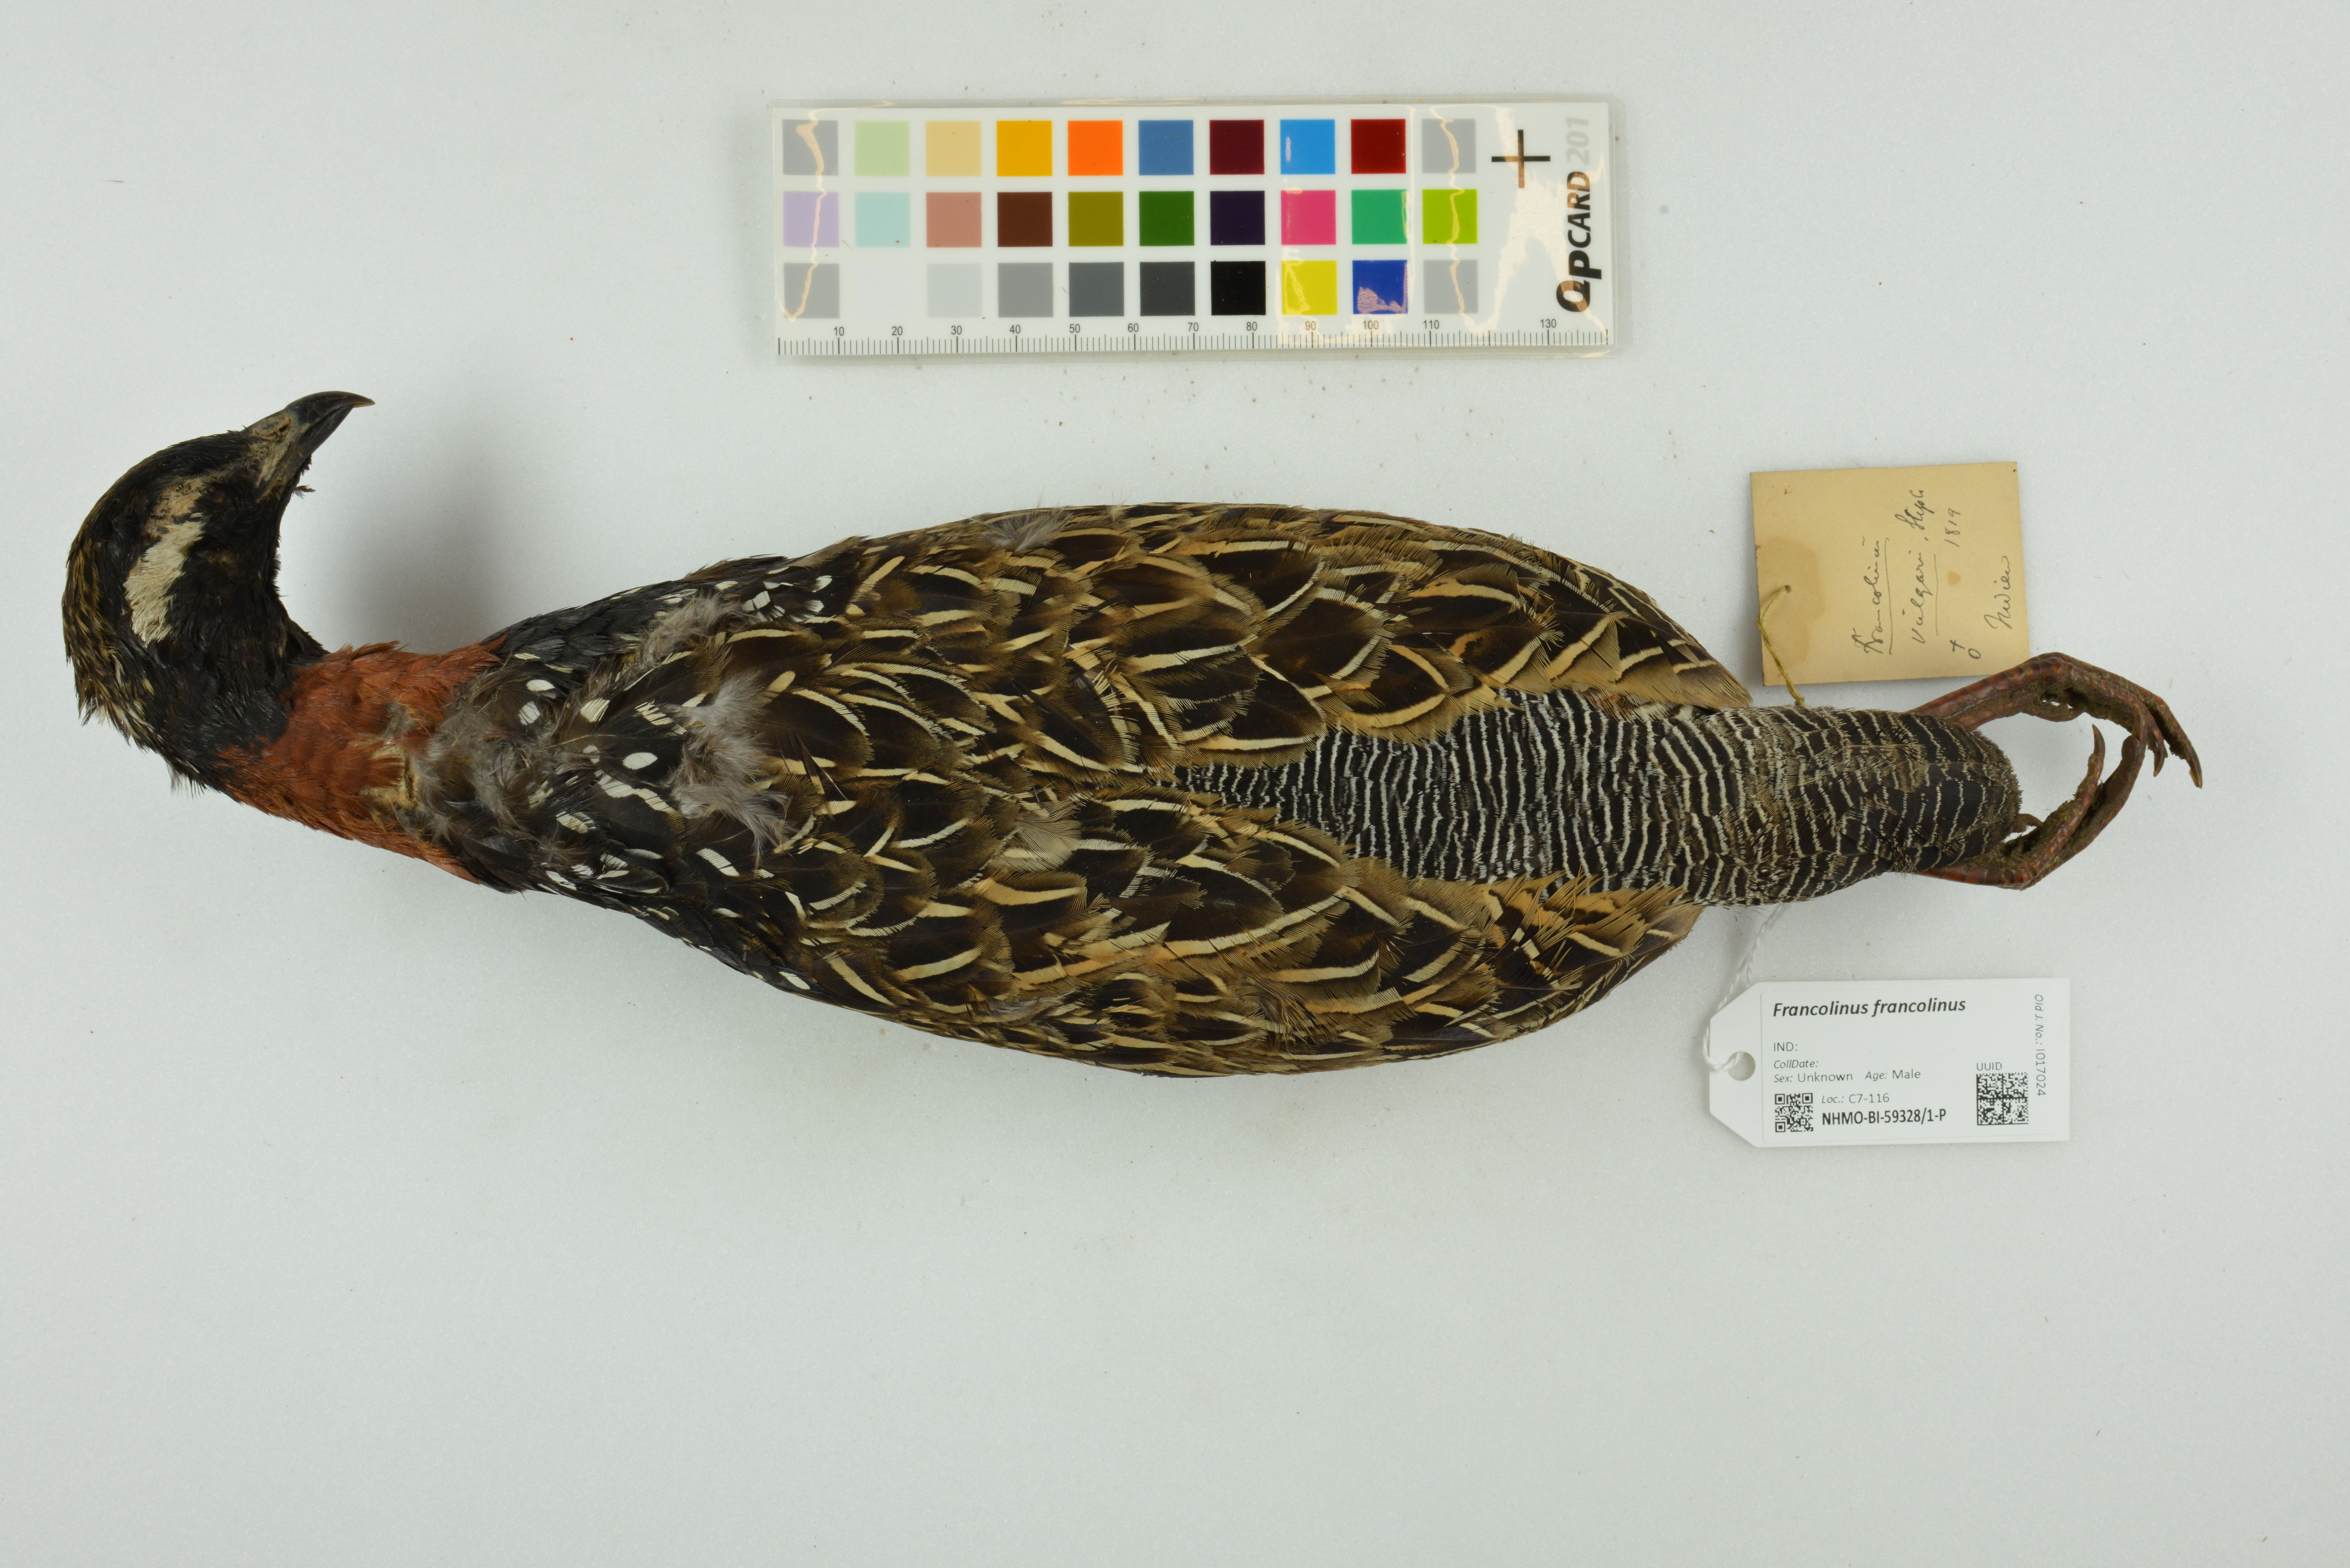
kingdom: Animalia
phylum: Chordata
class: Aves
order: Galliformes
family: Phasianidae
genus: Francolinus
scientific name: Francolinus francolinus
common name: Black francolin
